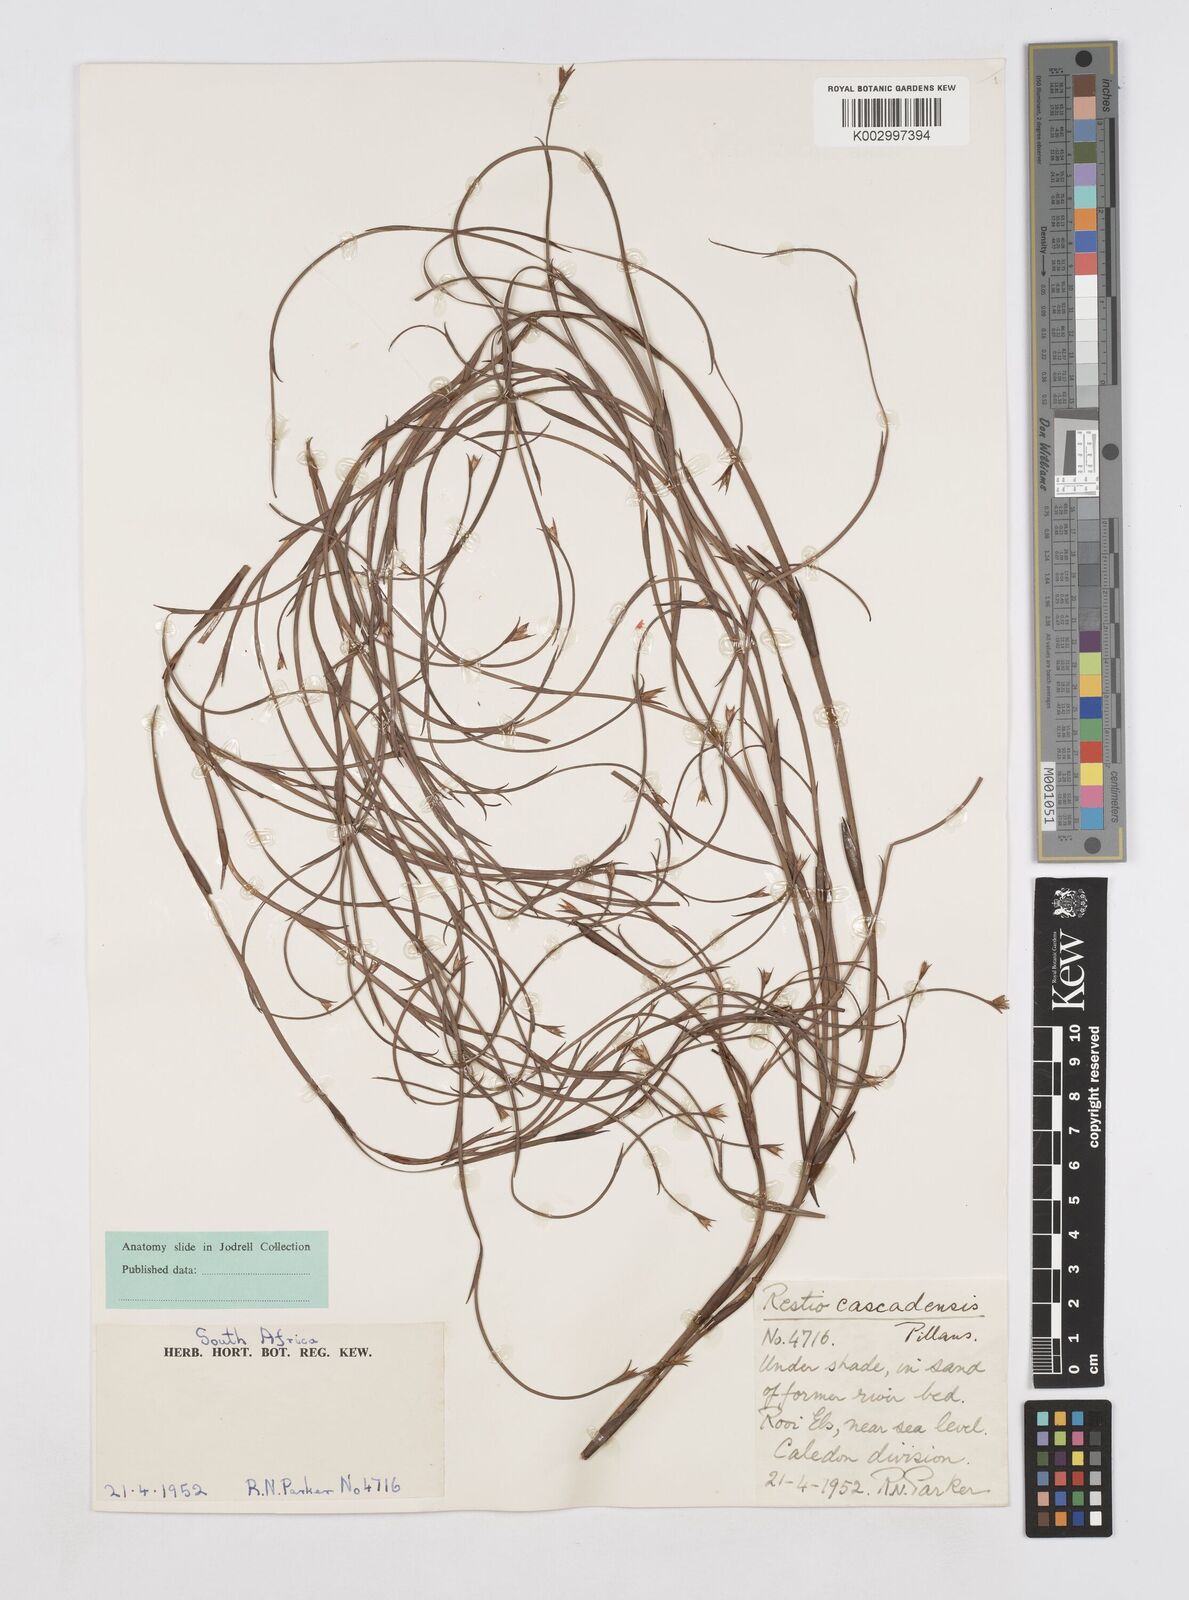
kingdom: Plantae
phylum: Tracheophyta
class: Liliopsida
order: Poales
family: Restionaceae
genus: Platycaulos
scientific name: Platycaulos cascadensis
